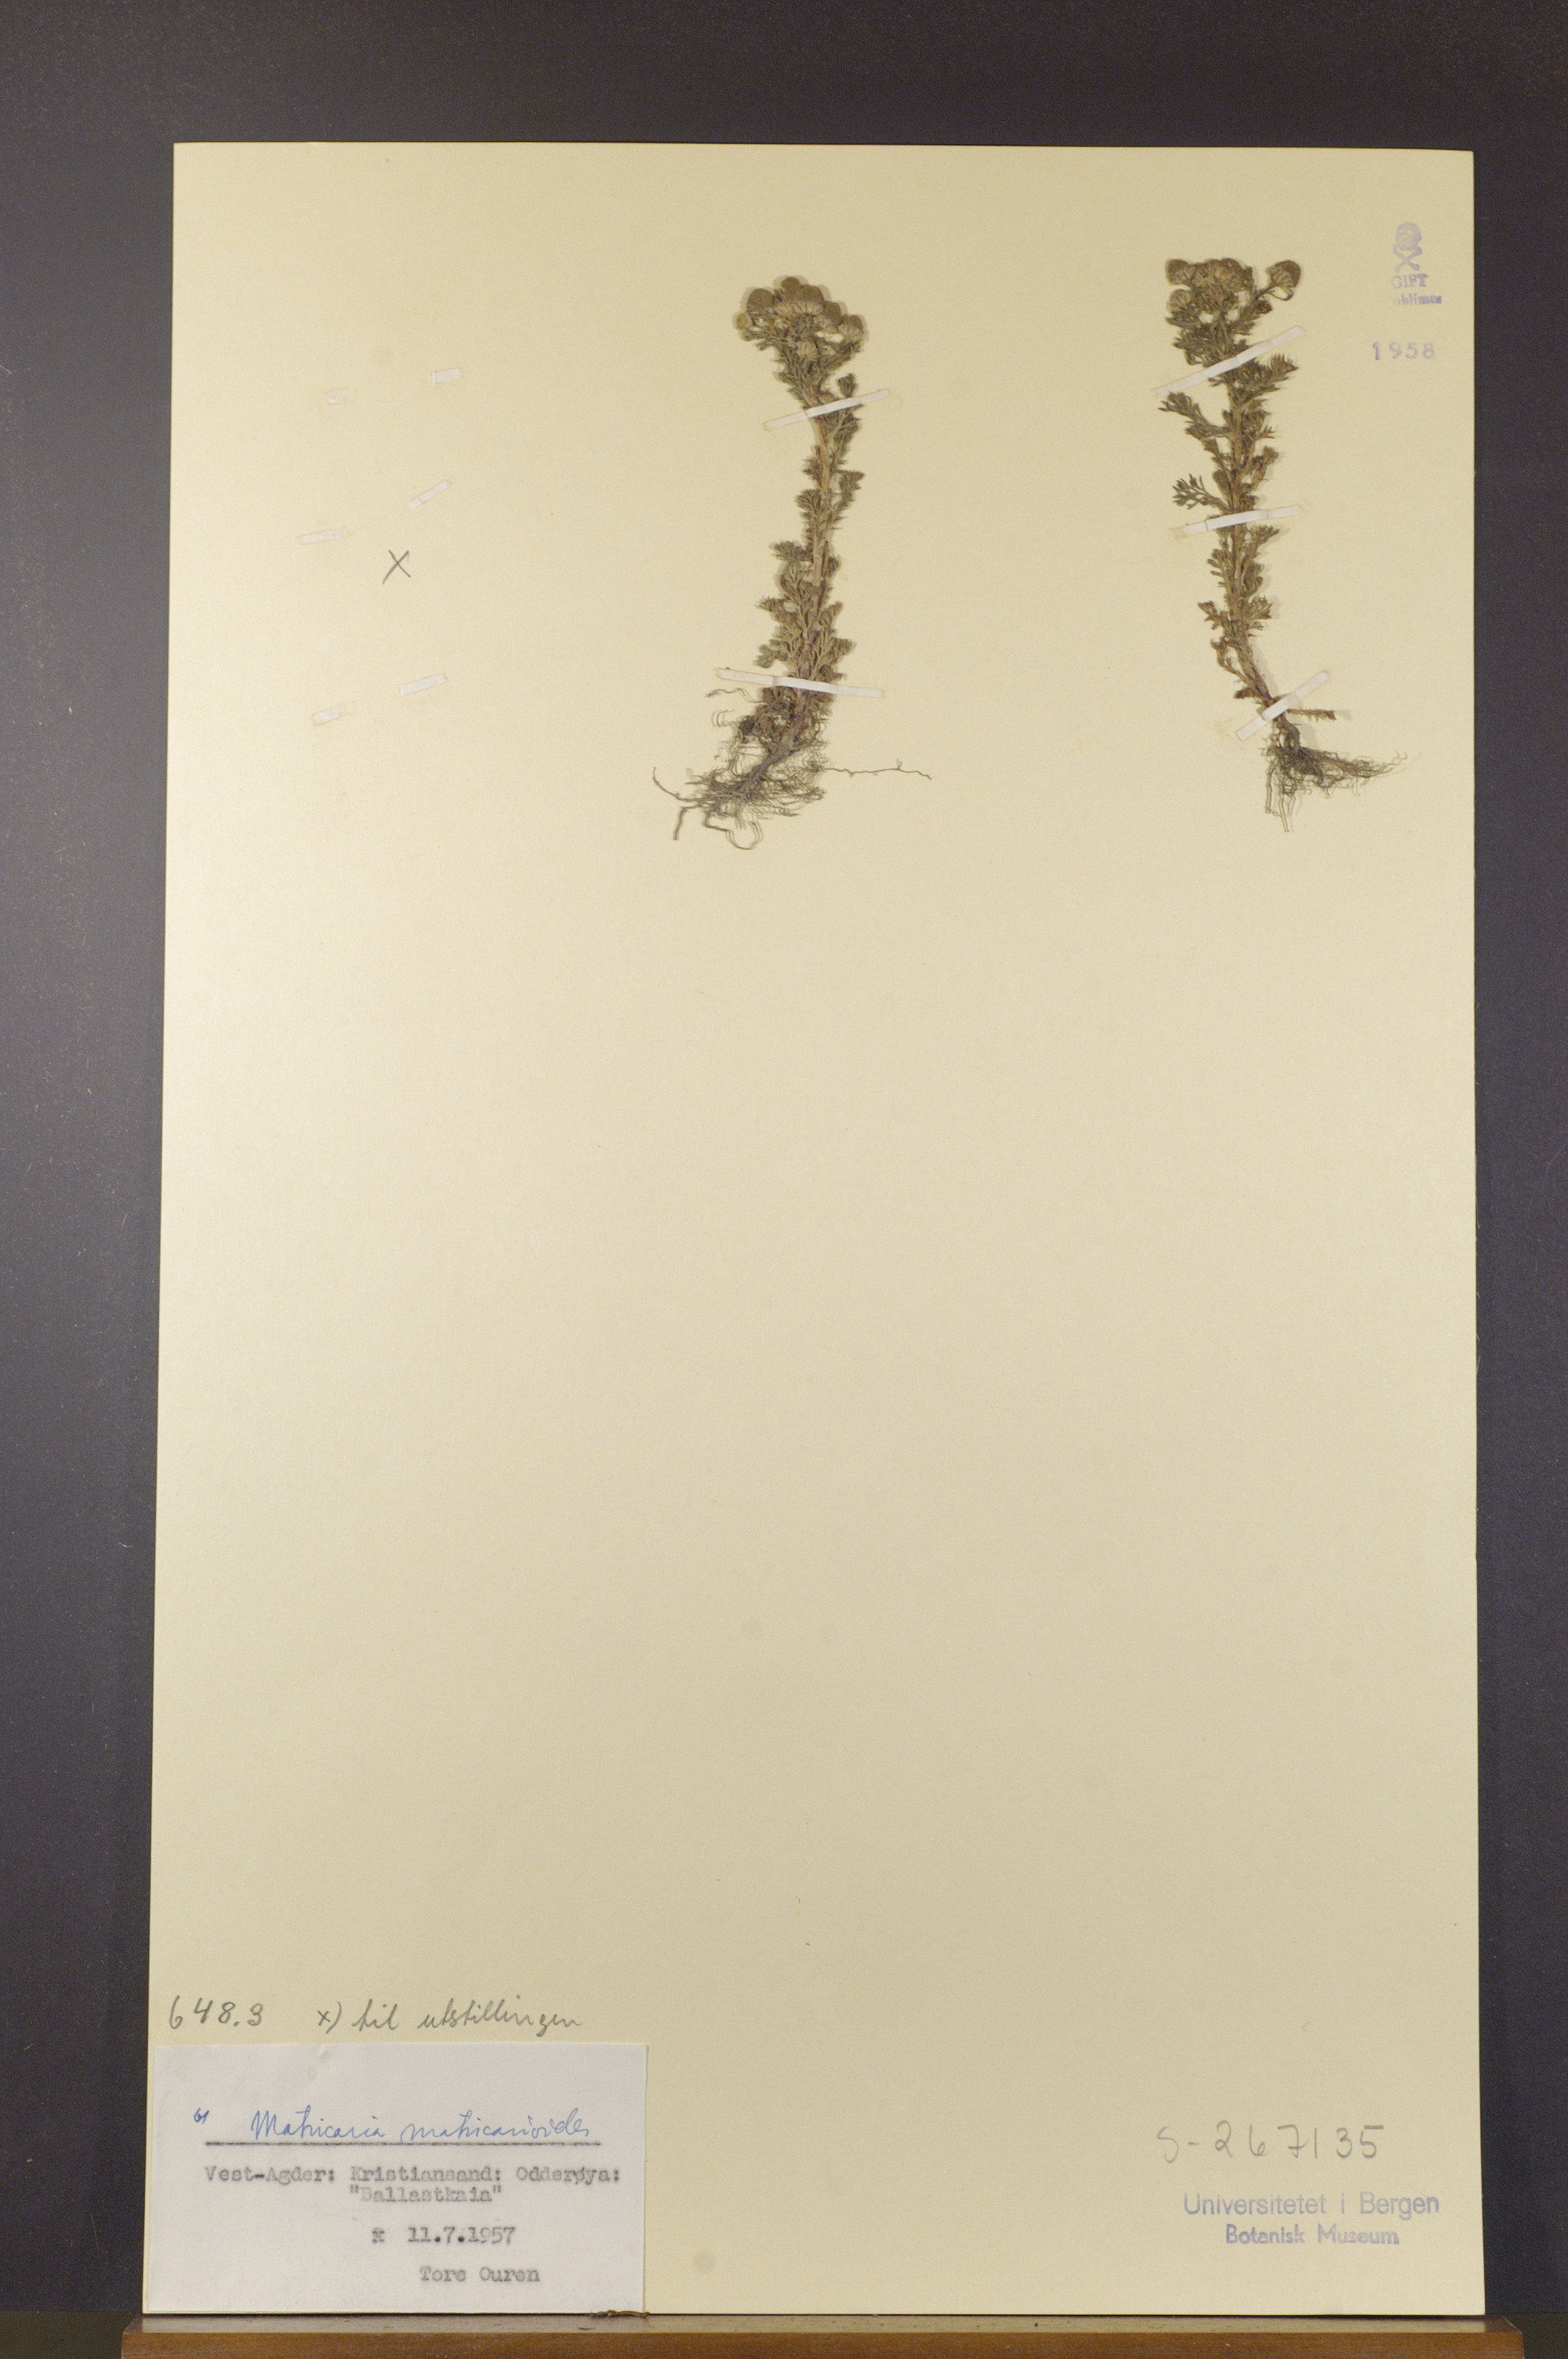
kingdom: Plantae
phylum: Tracheophyta
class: Magnoliopsida
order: Asterales
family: Asteraceae
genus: Matricaria
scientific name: Matricaria discoidea
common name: Disc mayweed
